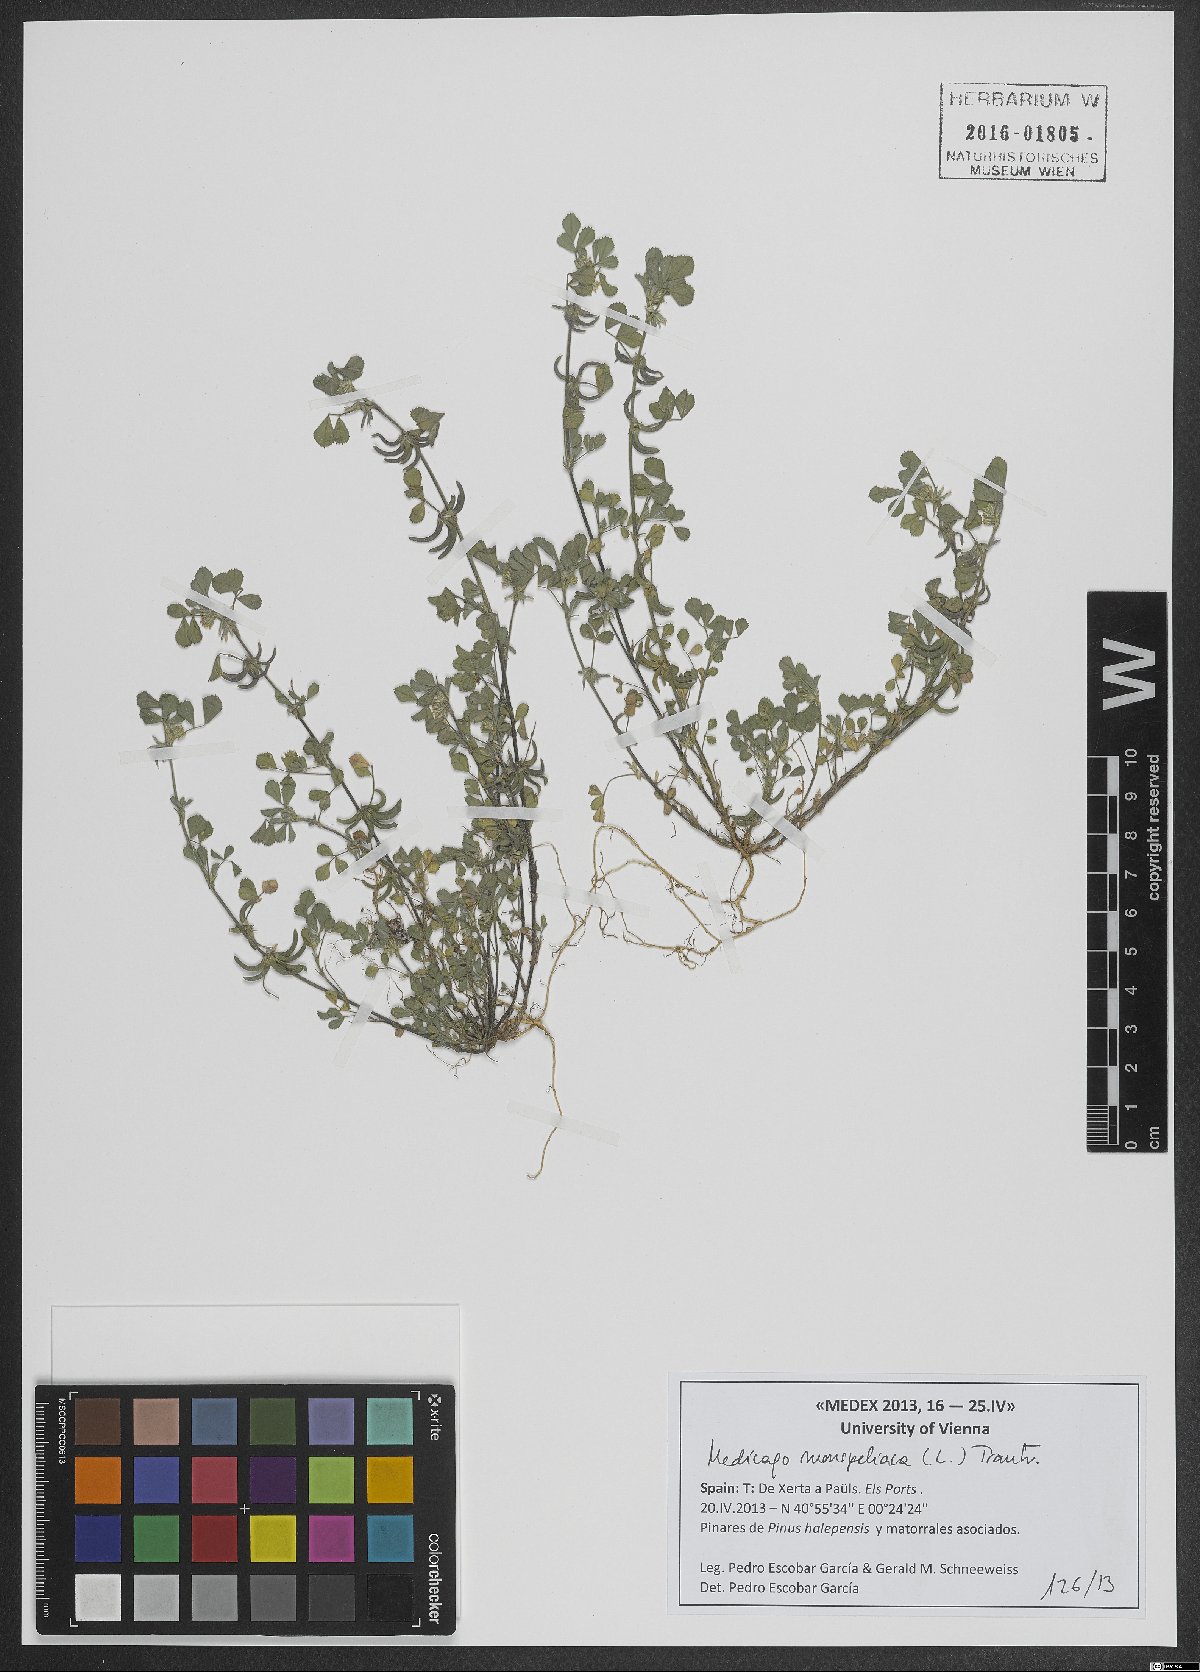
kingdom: Plantae
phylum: Tracheophyta
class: Magnoliopsida
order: Fabales
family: Fabaceae
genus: Medicago
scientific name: Medicago monspeliaca
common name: Hairy medick
